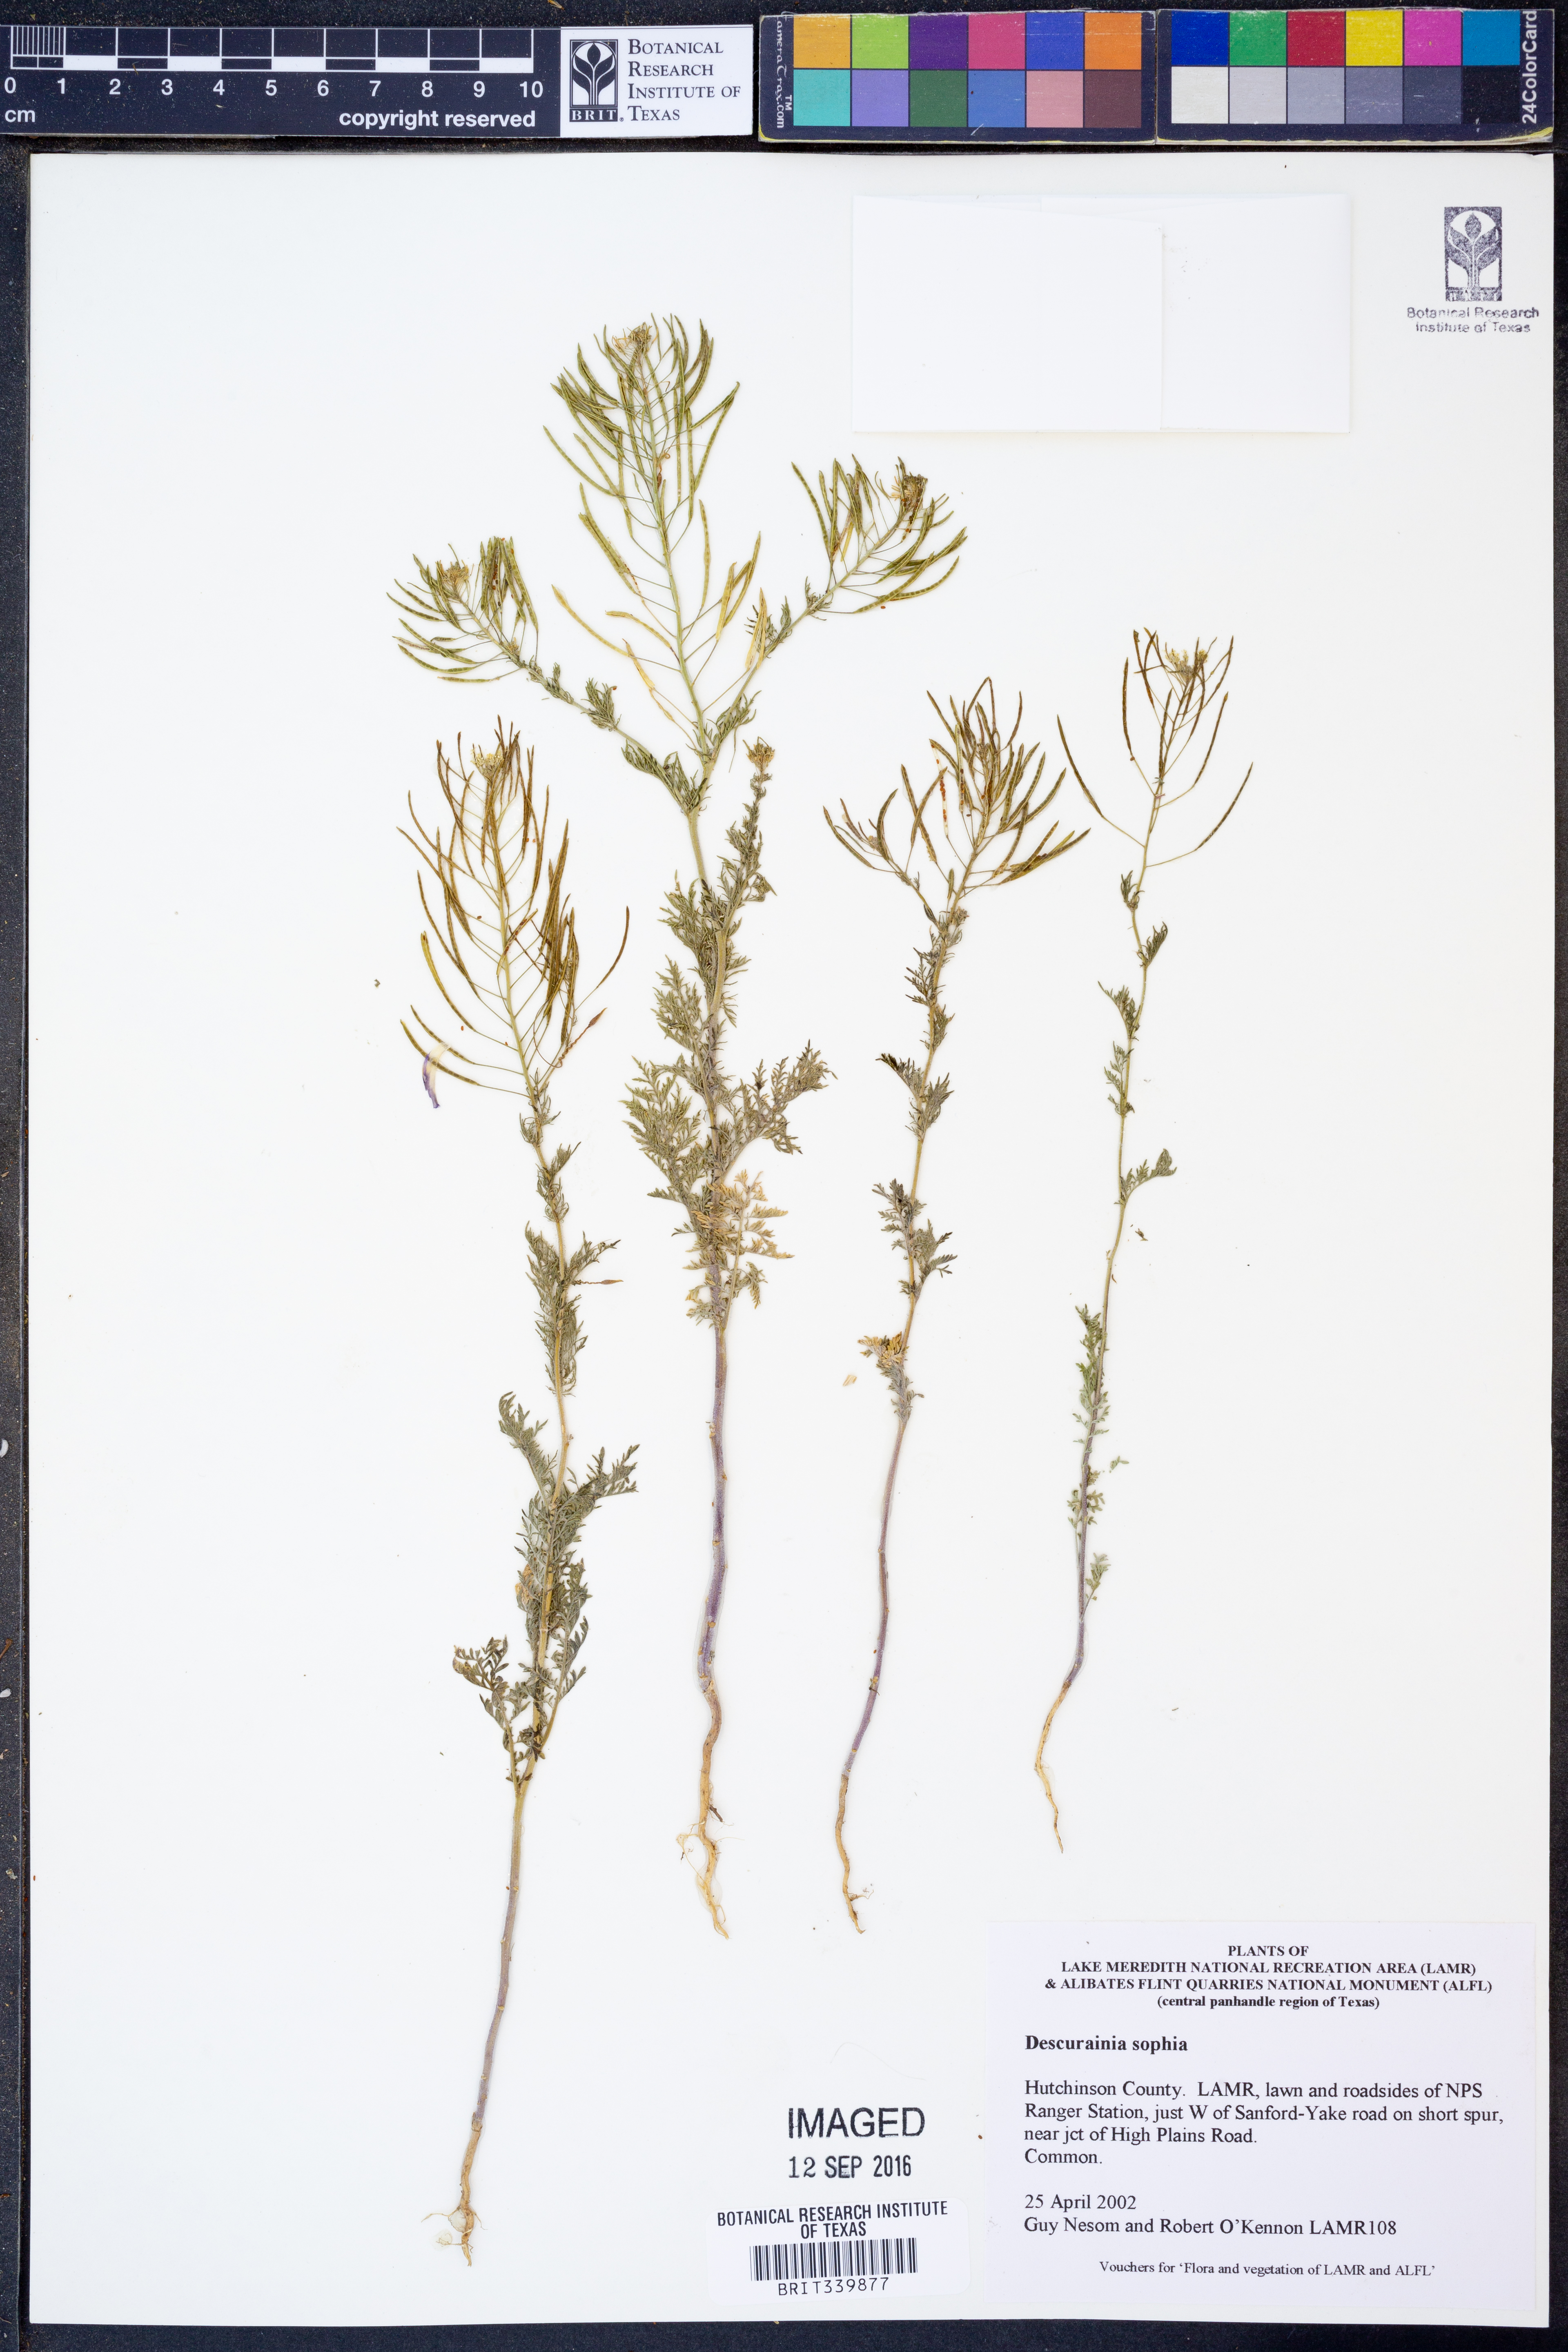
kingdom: Plantae
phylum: Tracheophyta
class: Magnoliopsida
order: Brassicales
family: Brassicaceae
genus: Descurainia
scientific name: Descurainia sophia
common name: Flixweed
